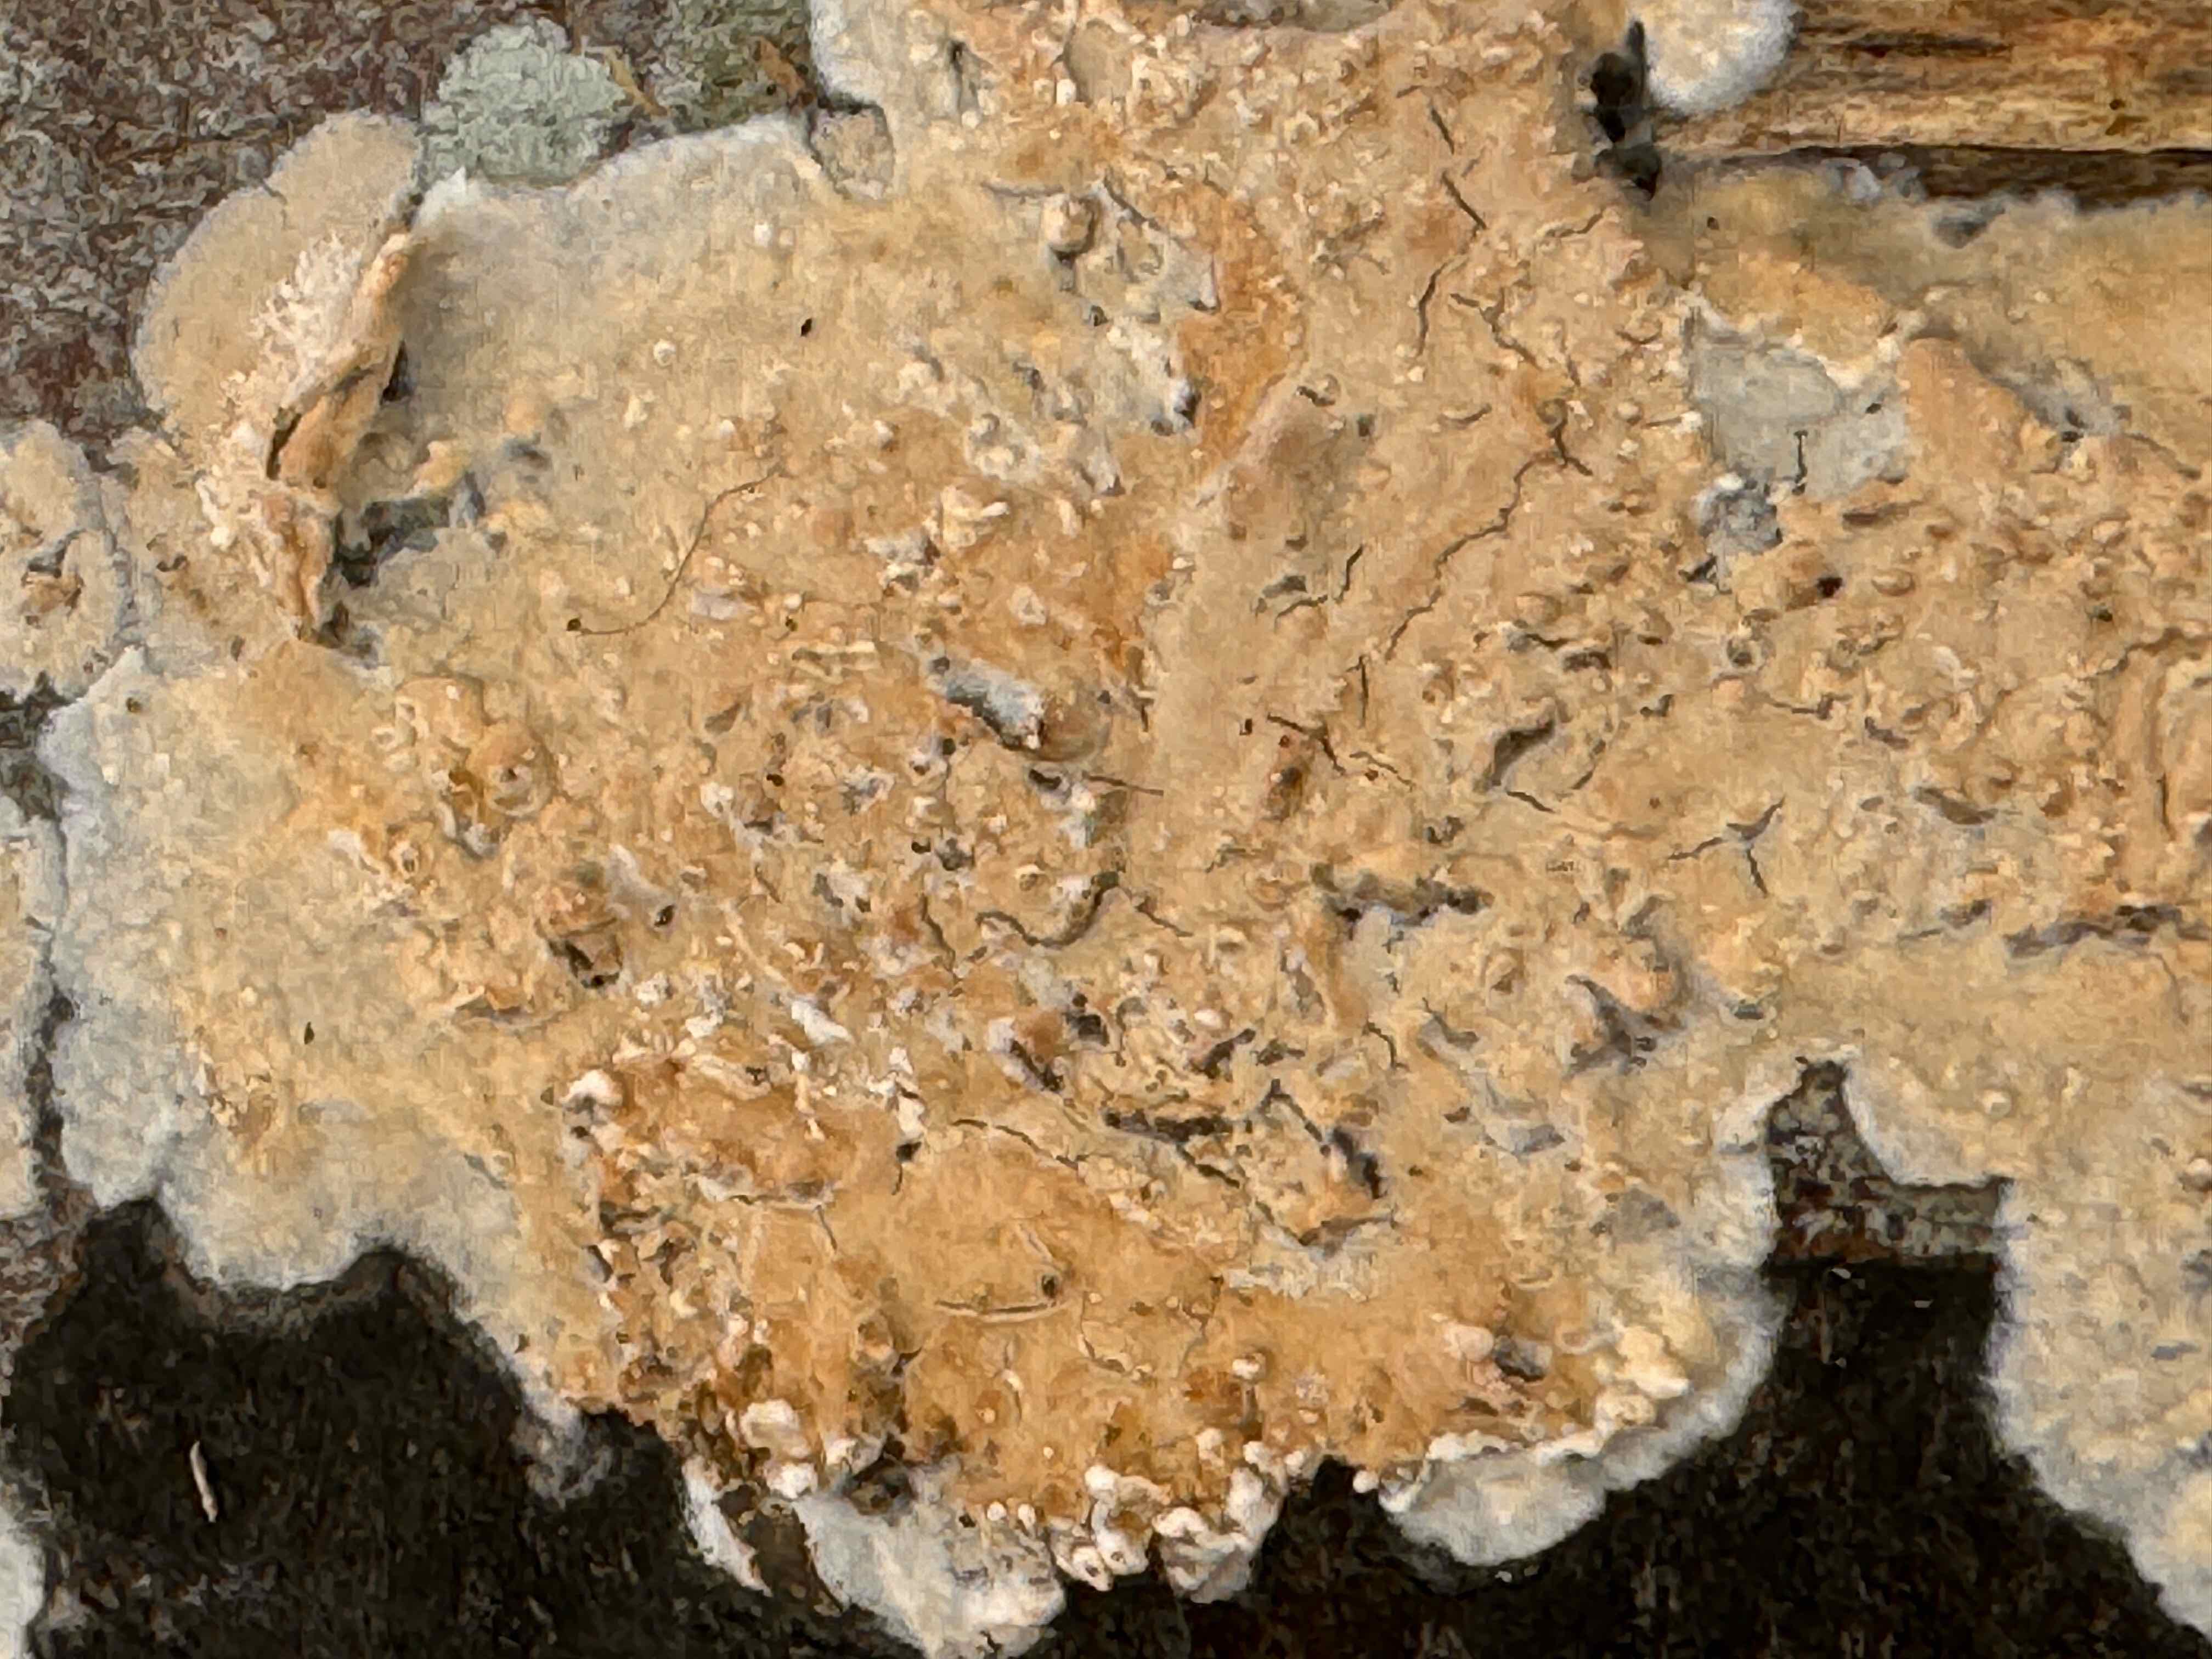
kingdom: Fungi
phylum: Basidiomycota
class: Agaricomycetes
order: Agaricales
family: Physalacriaceae
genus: Cylindrobasidium
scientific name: Cylindrobasidium evolvens
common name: sprækkehinde
